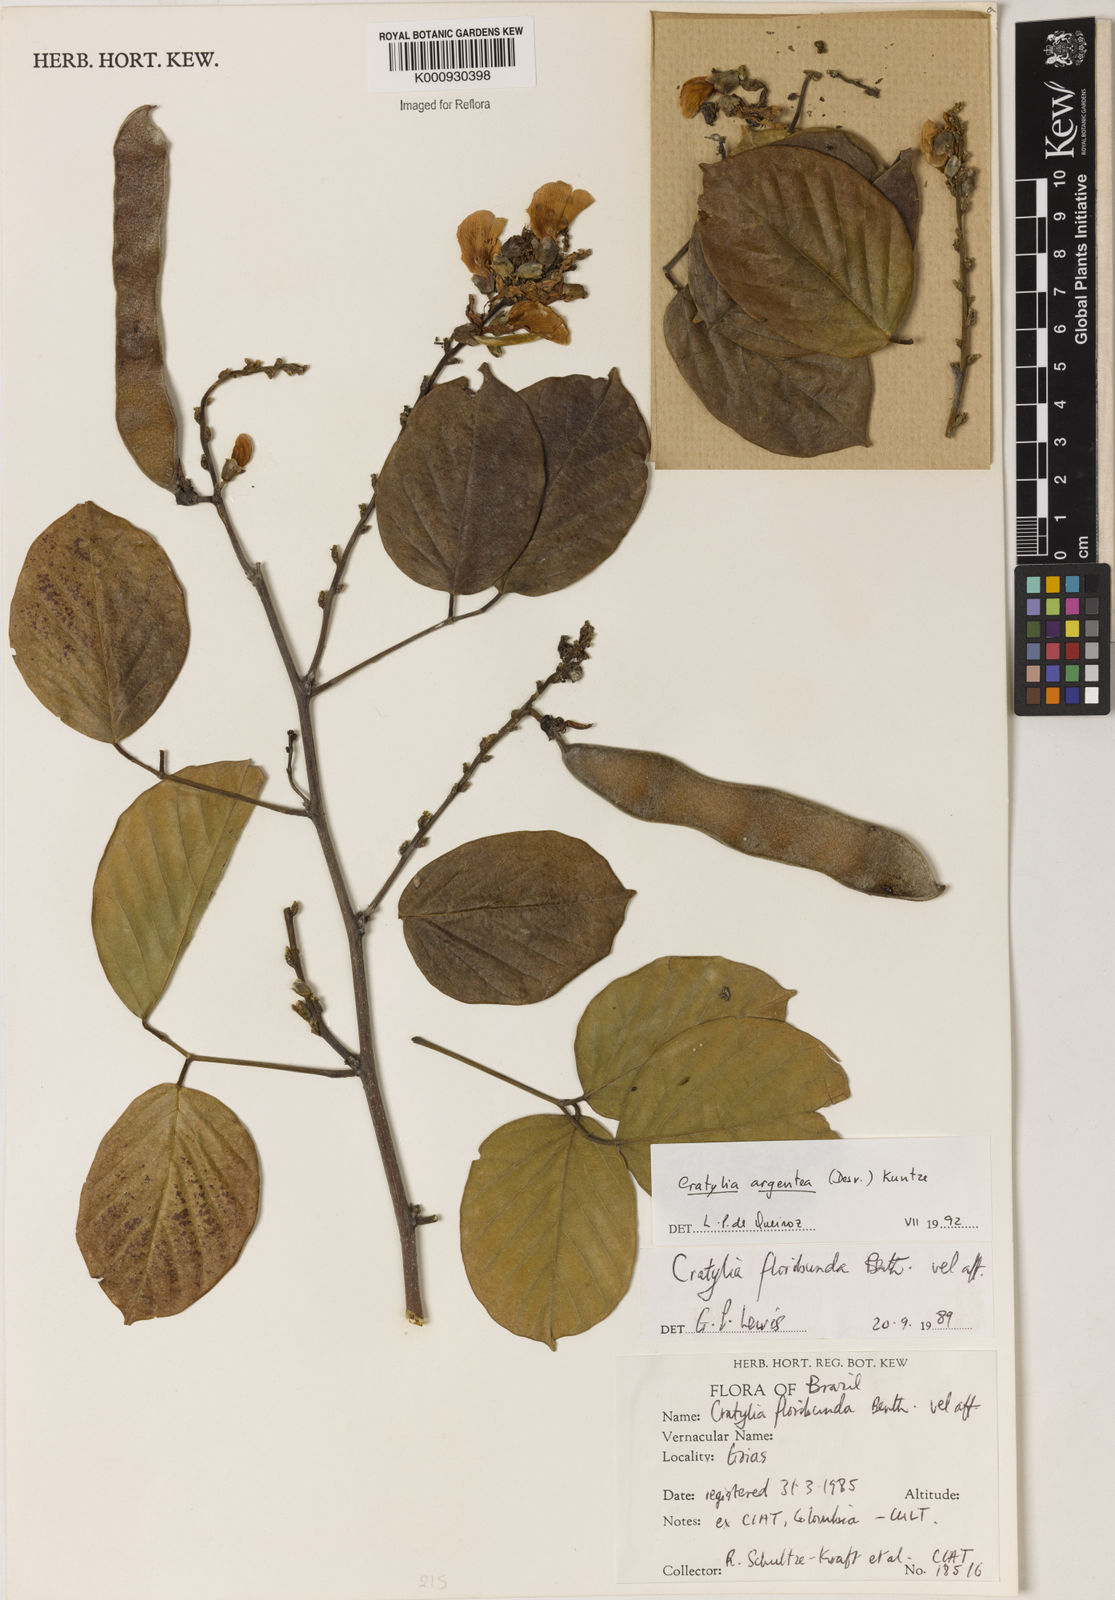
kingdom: Plantae
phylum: Tracheophyta
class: Magnoliopsida
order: Fabales
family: Fabaceae
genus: Cratylia
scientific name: Cratylia argentea
